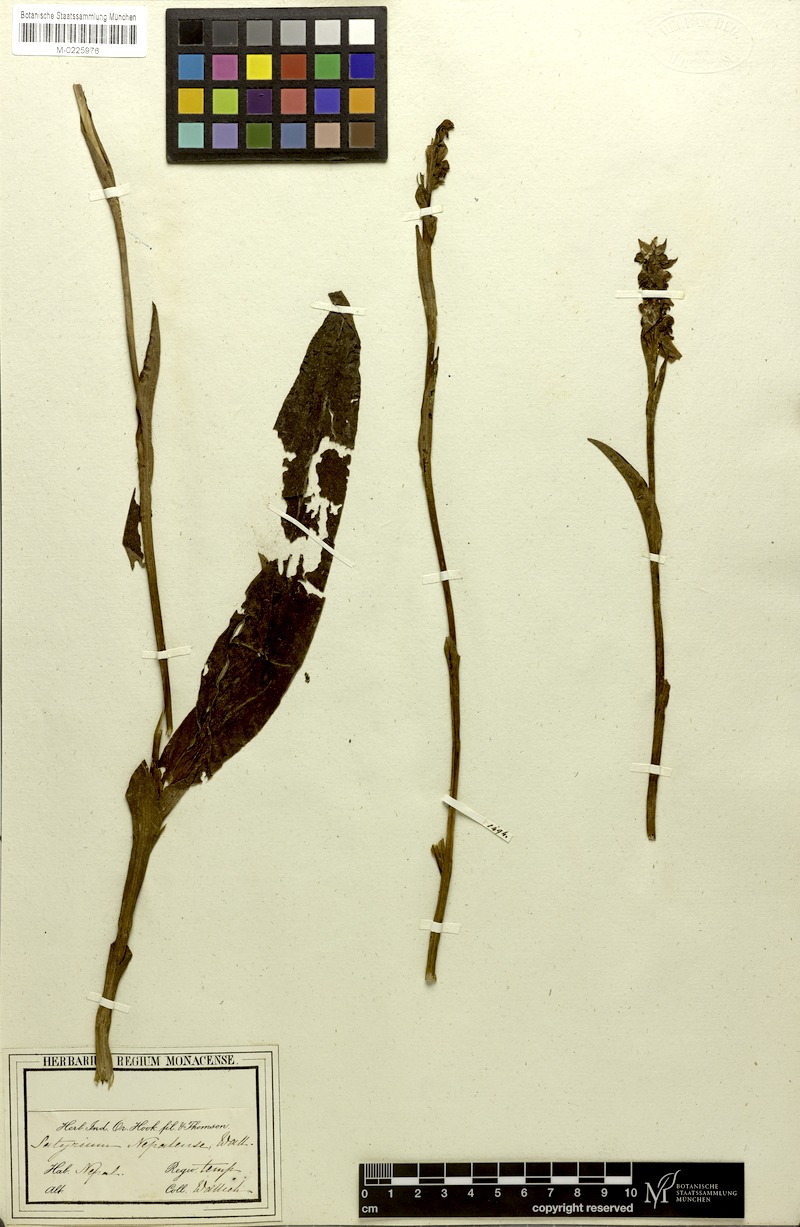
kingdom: Plantae
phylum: Tracheophyta
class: Liliopsida
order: Asparagales
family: Orchidaceae
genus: Satyrium
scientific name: Satyrium nepalense
